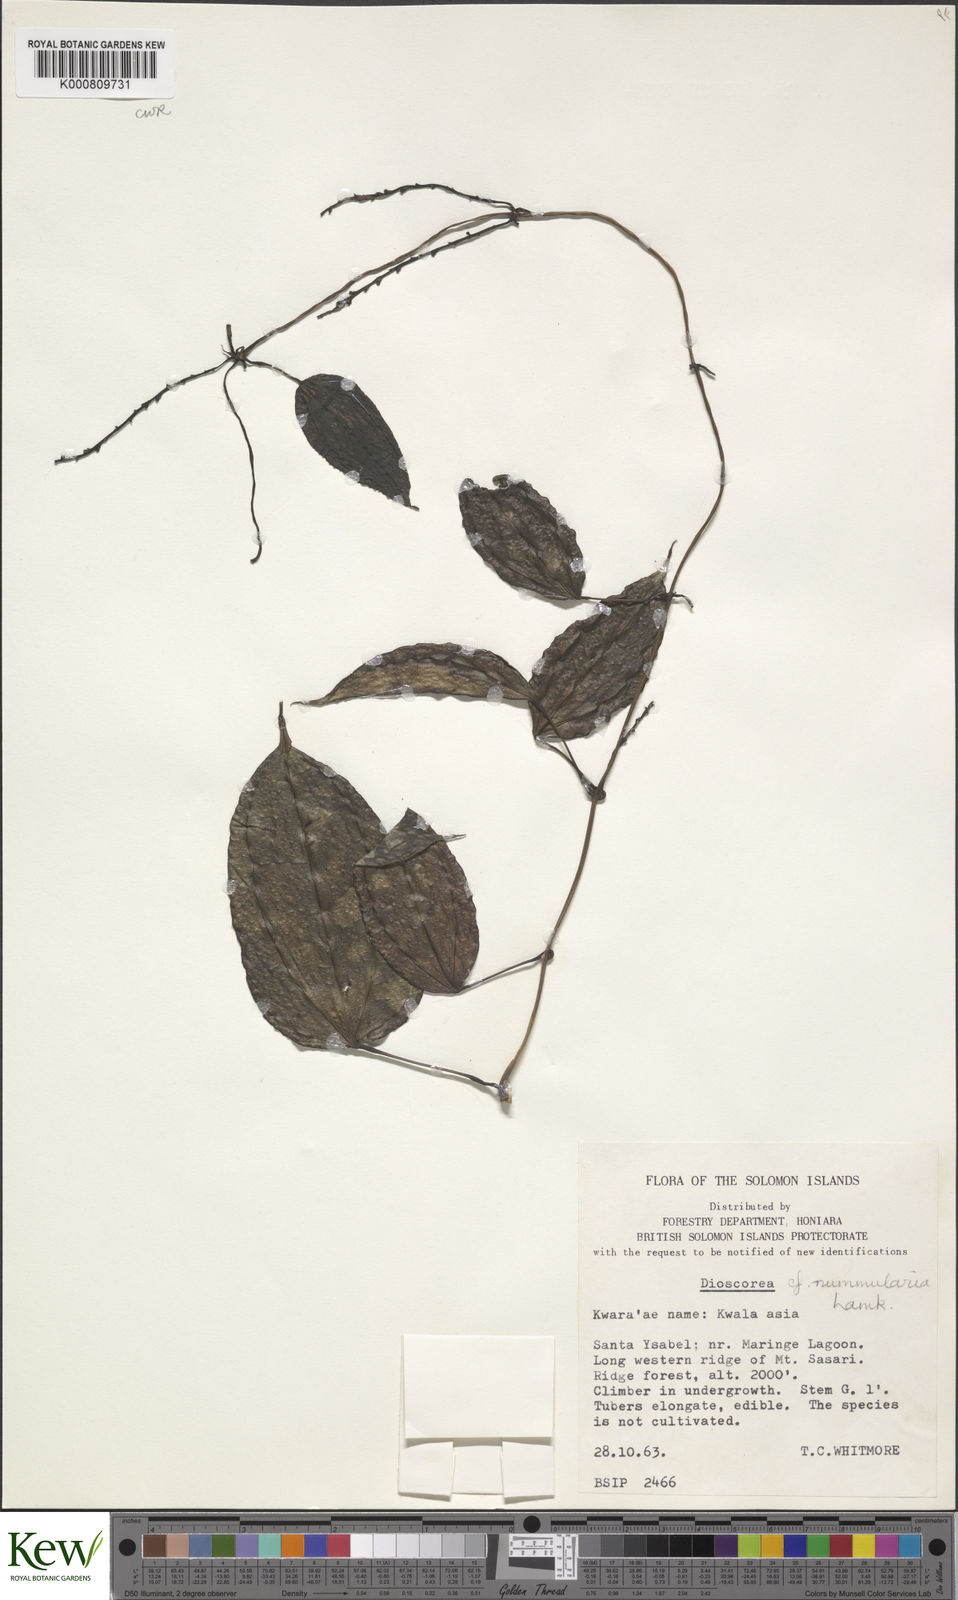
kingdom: Plantae
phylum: Tracheophyta
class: Liliopsida
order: Dioscoreales
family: Dioscoreaceae
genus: Dioscorea
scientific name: Dioscorea nummularia
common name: Pacific yam
